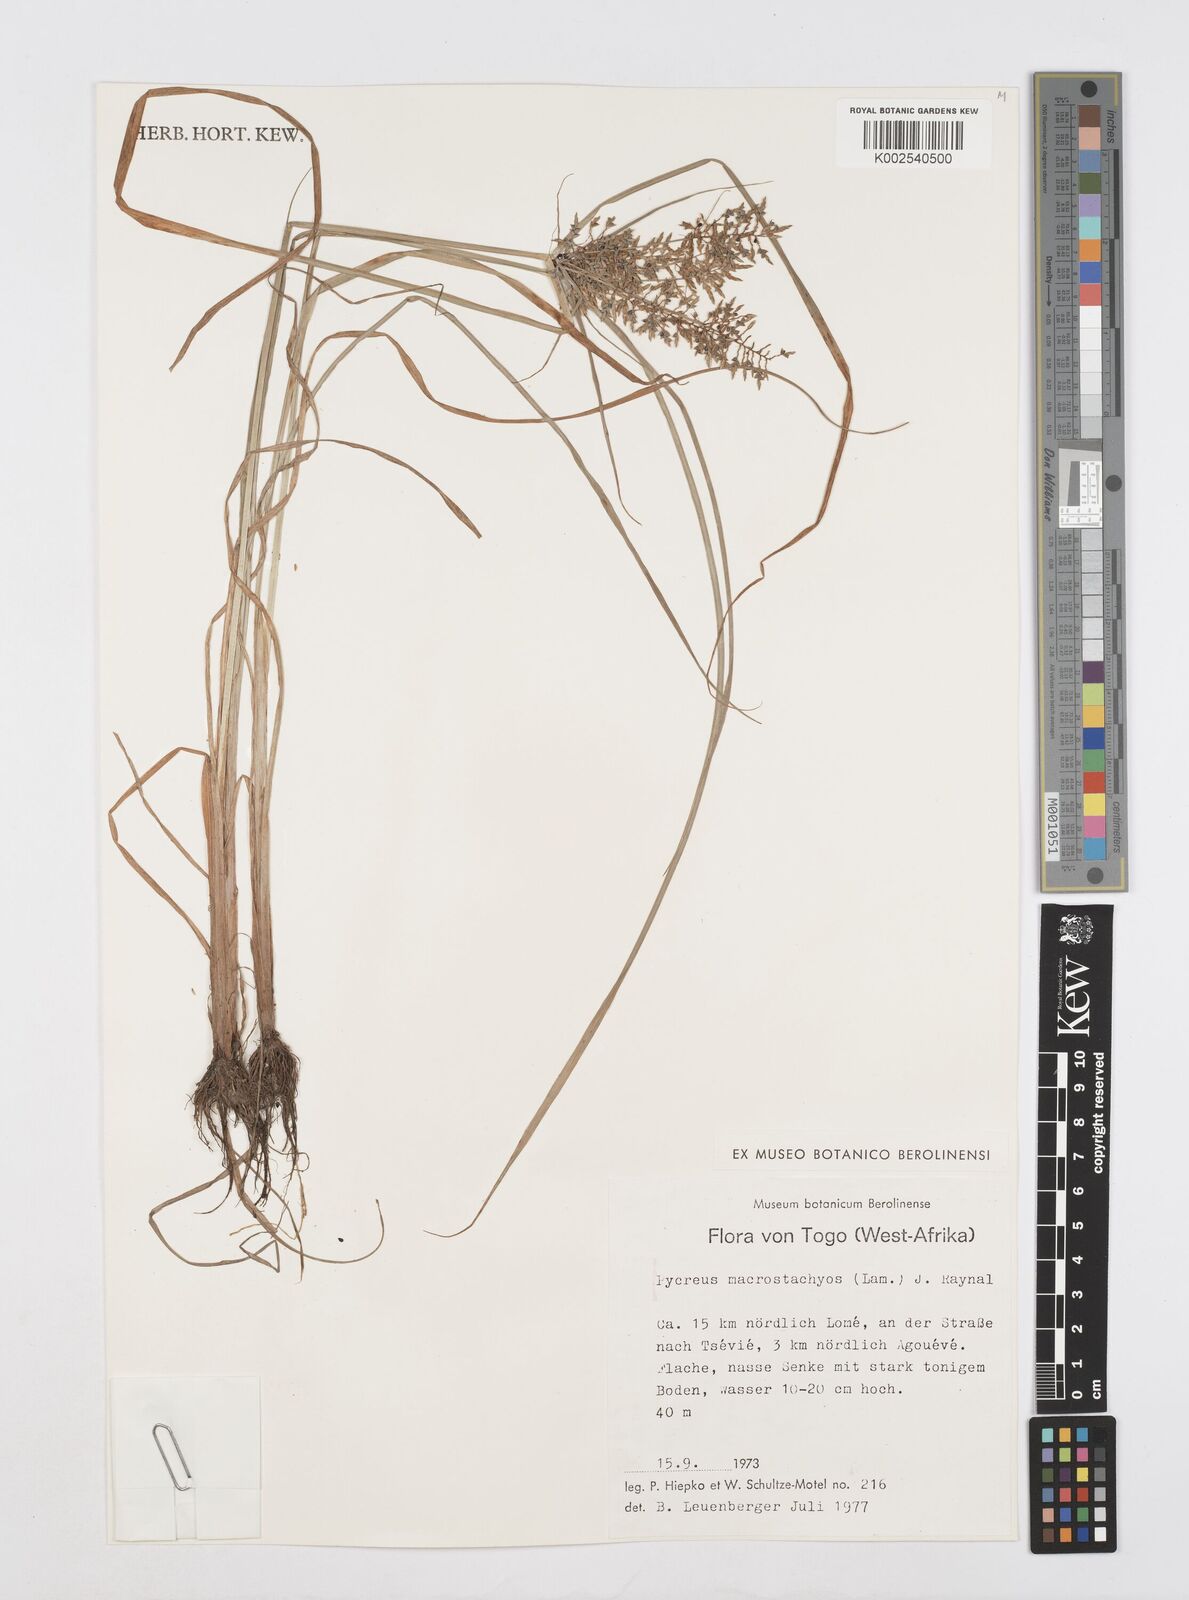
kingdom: Plantae
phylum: Tracheophyta
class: Liliopsida
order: Poales
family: Cyperaceae
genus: Cyperus
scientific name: Cyperus macrostachyos
